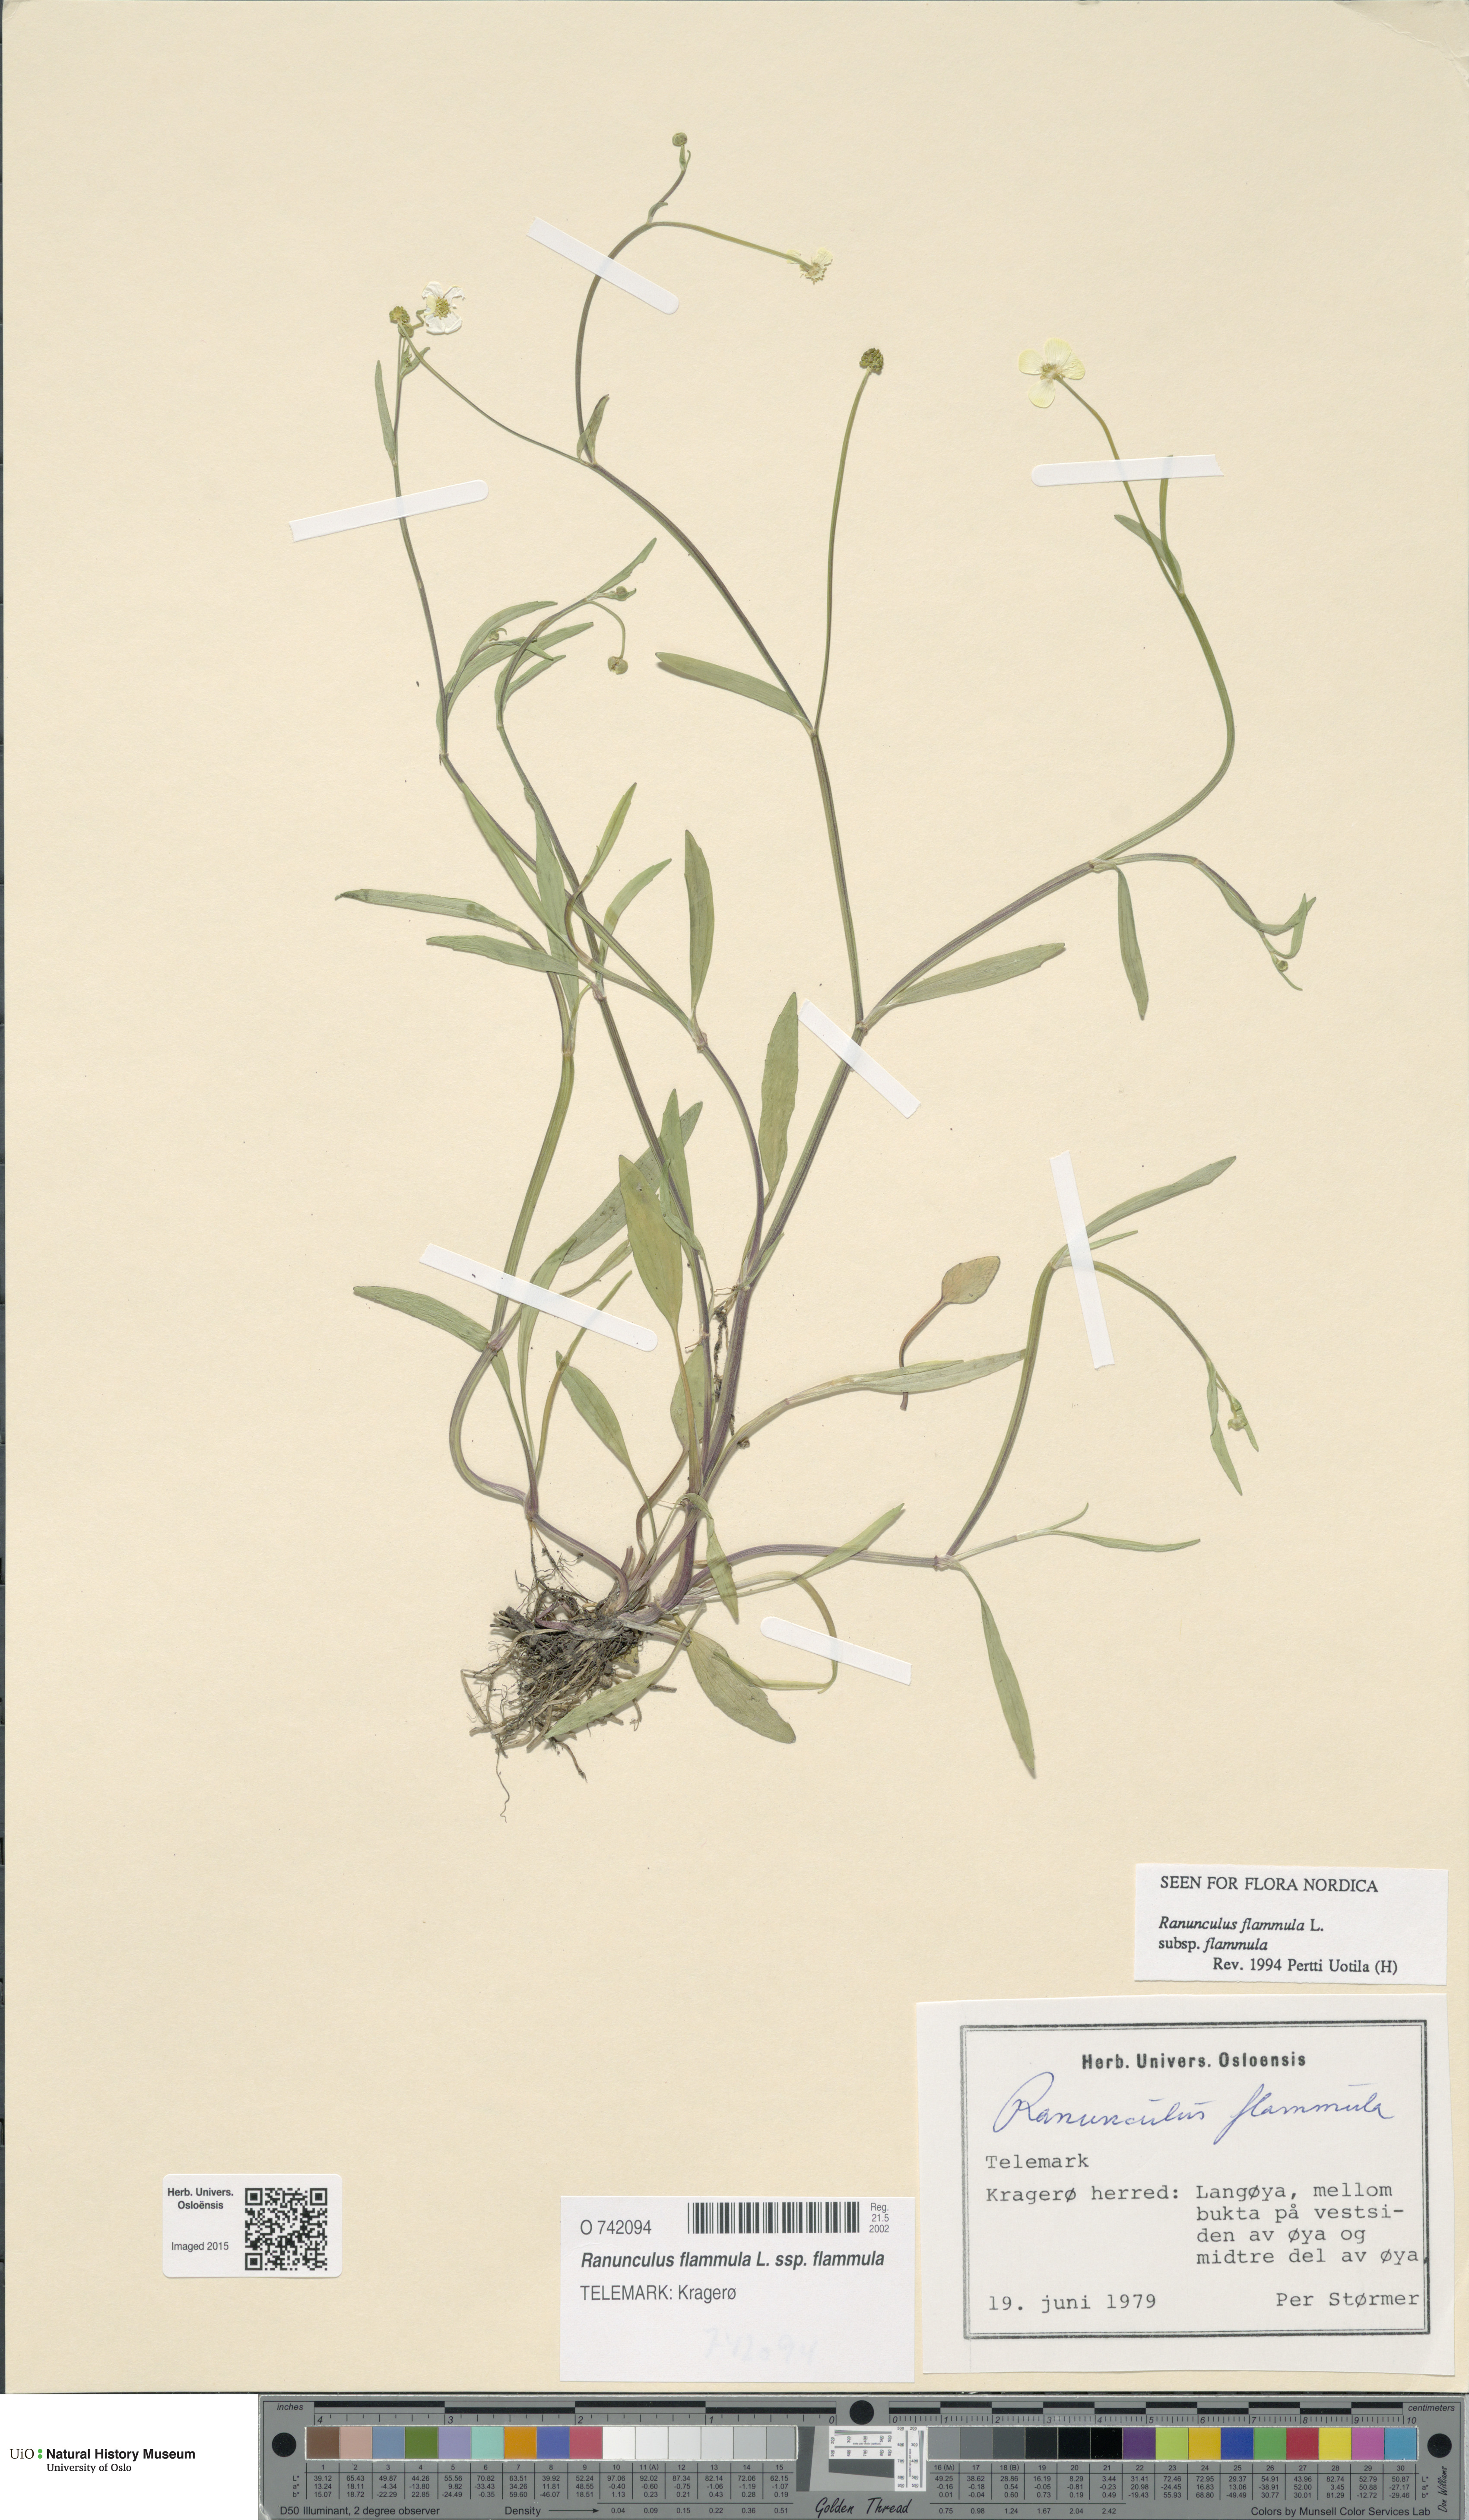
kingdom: Plantae
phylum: Tracheophyta
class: Magnoliopsida
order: Ranunculales
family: Ranunculaceae
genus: Ranunculus
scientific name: Ranunculus flammula
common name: Lesser spearwort
